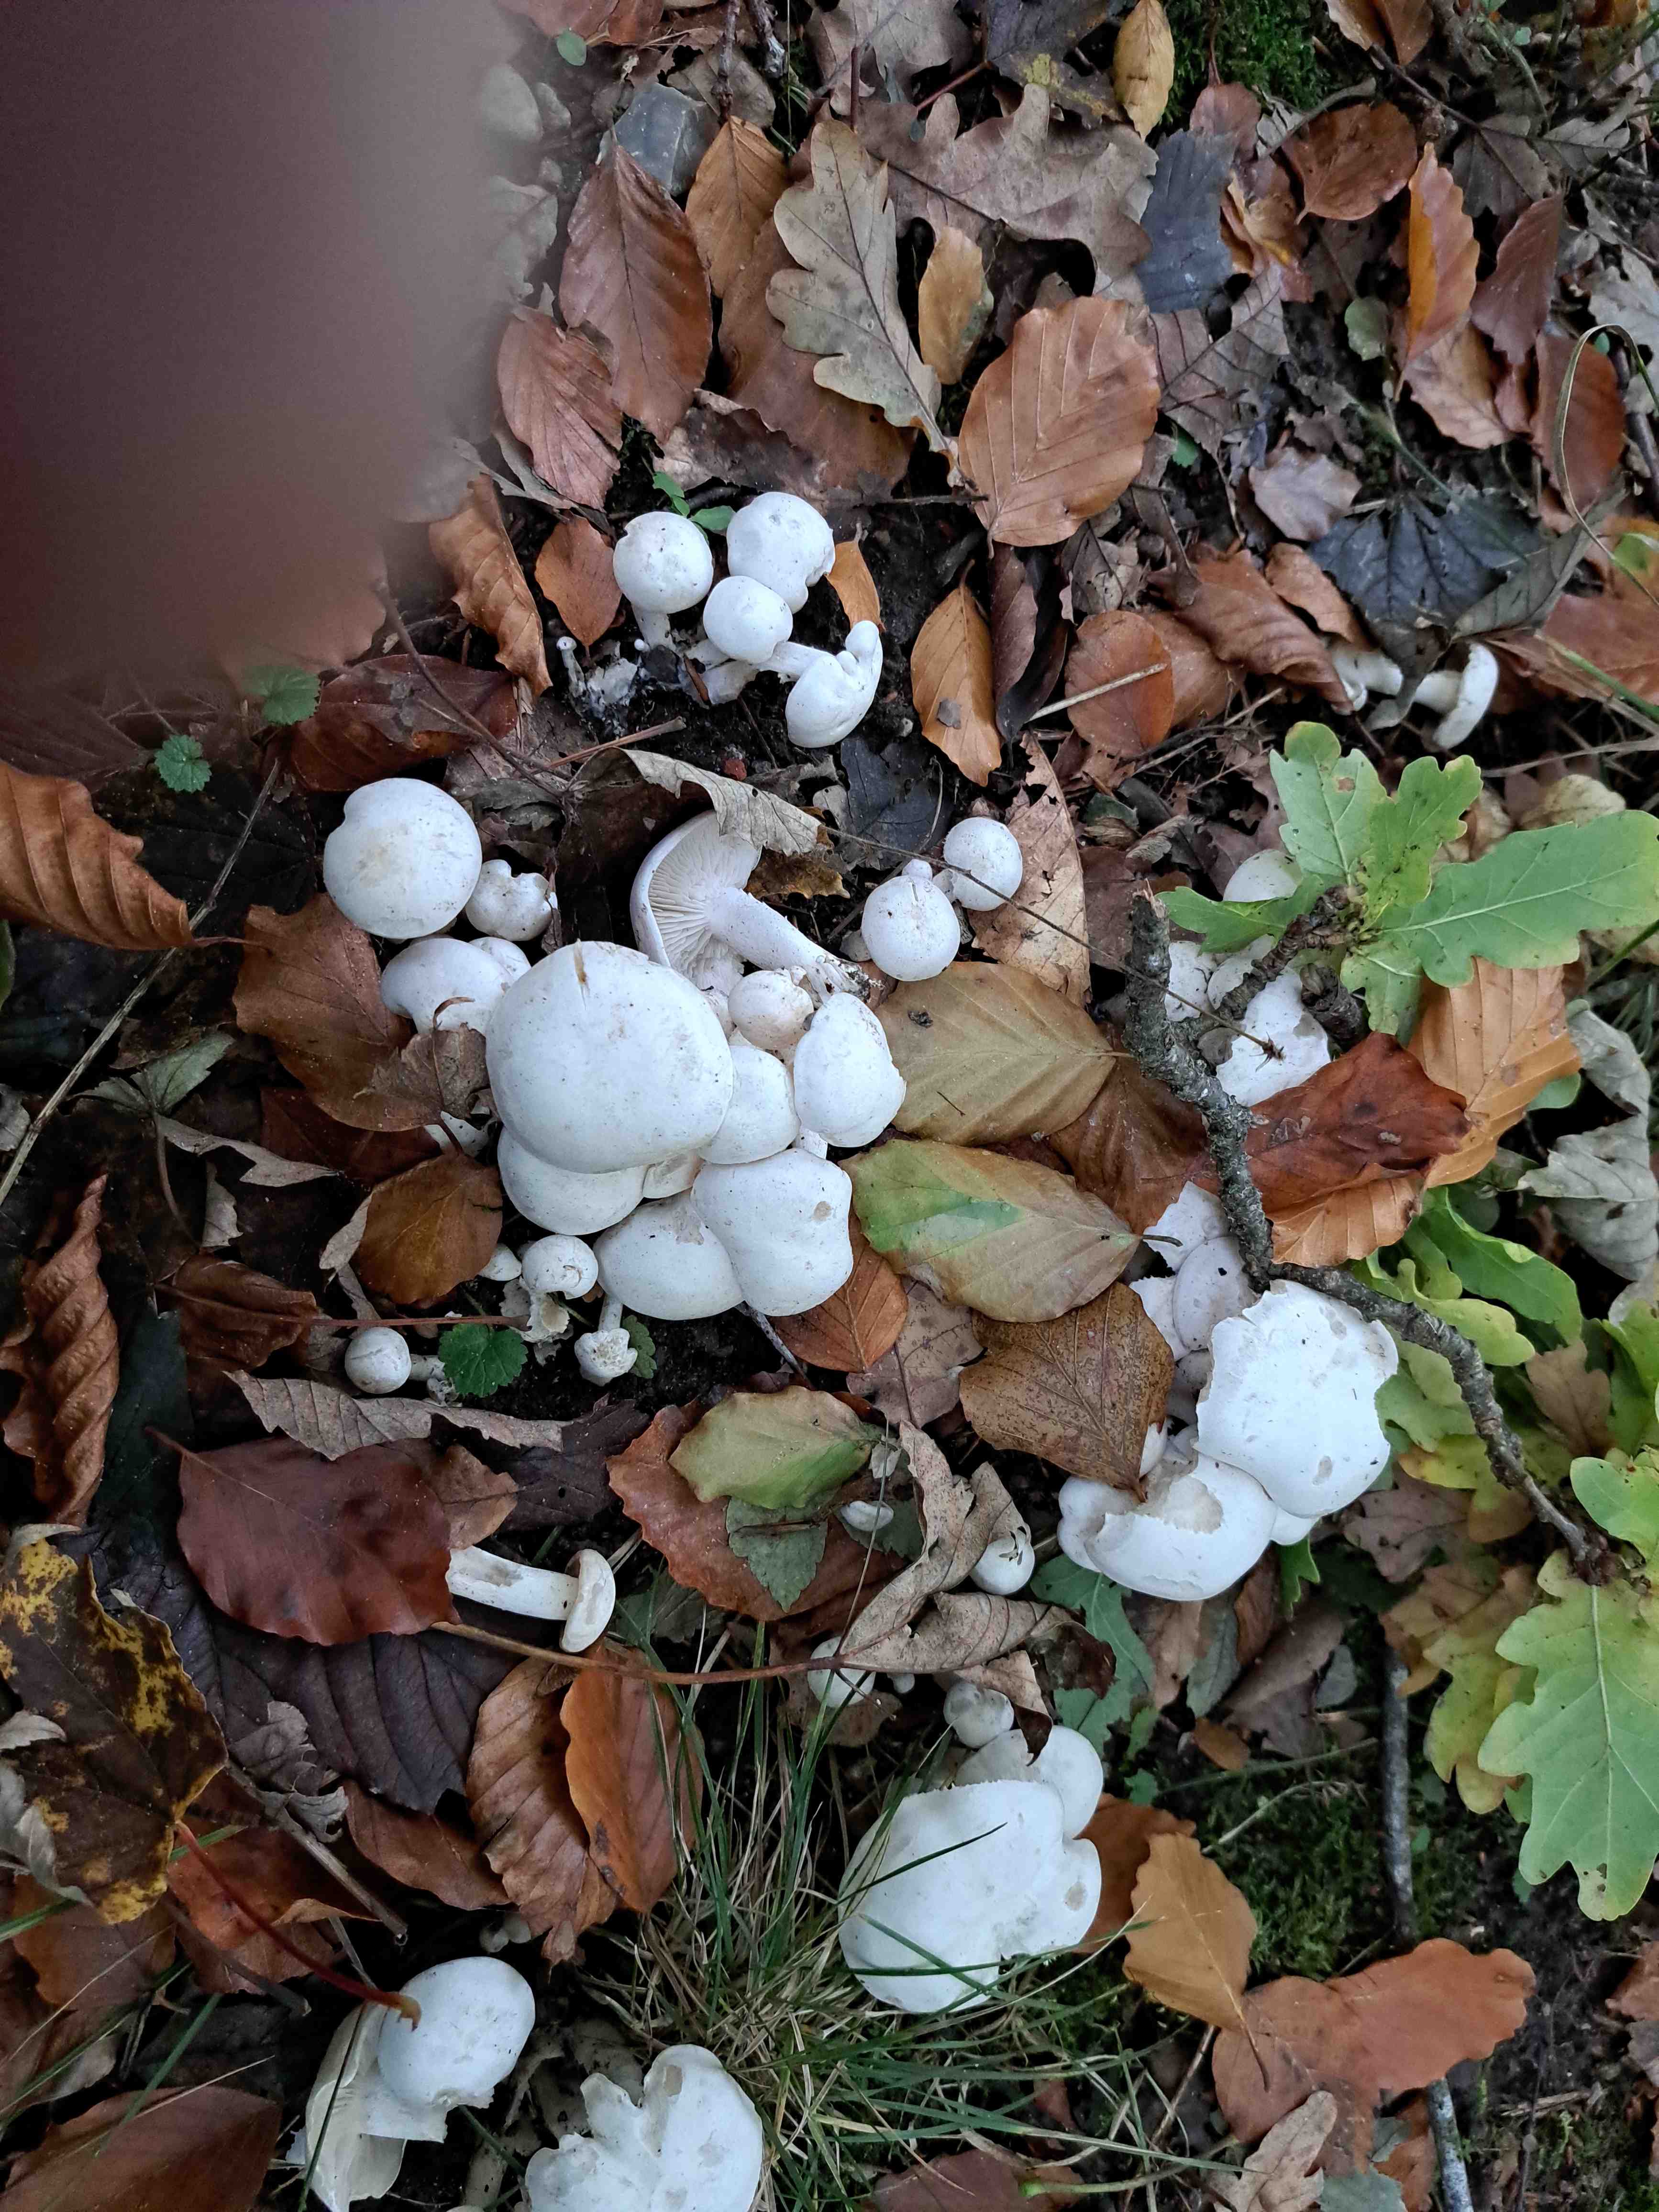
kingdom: Fungi
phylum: Basidiomycota
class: Agaricomycetes
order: Agaricales
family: Tricholomataceae
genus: Leucocybe
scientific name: Leucocybe connata
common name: knippe-tragthat
